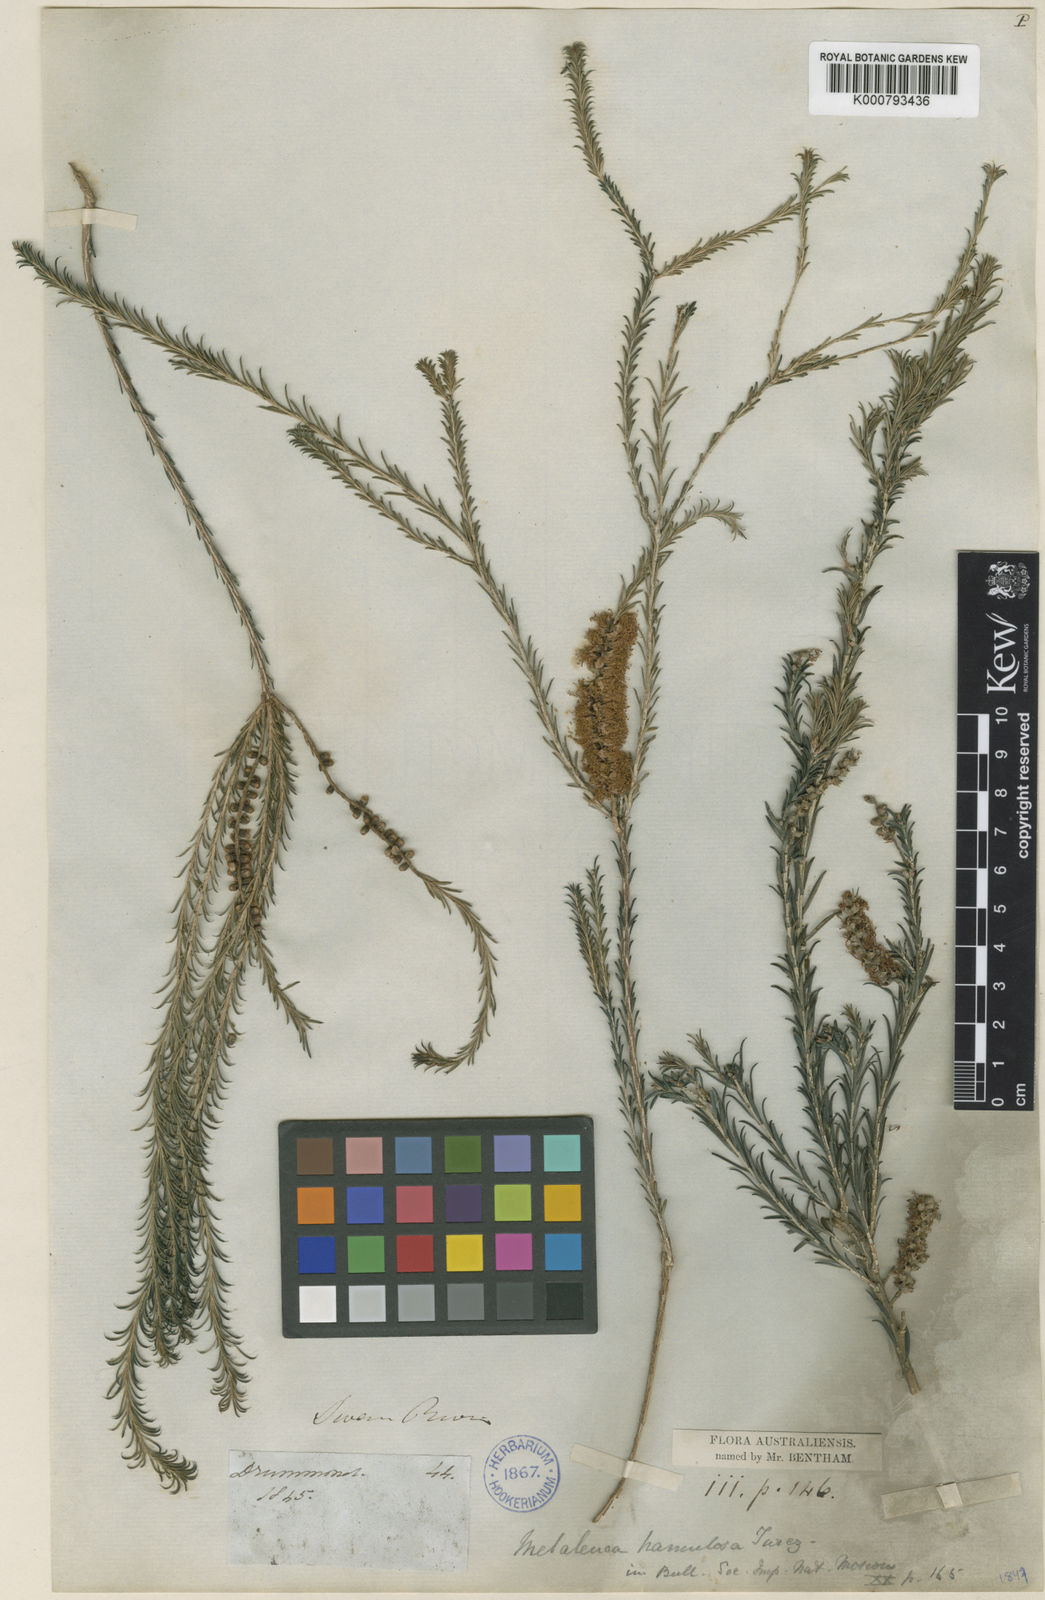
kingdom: Plantae
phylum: Tracheophyta
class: Magnoliopsida
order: Myrtales
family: Myrtaceae
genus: Melaleuca
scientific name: Melaleuca hamulosa
